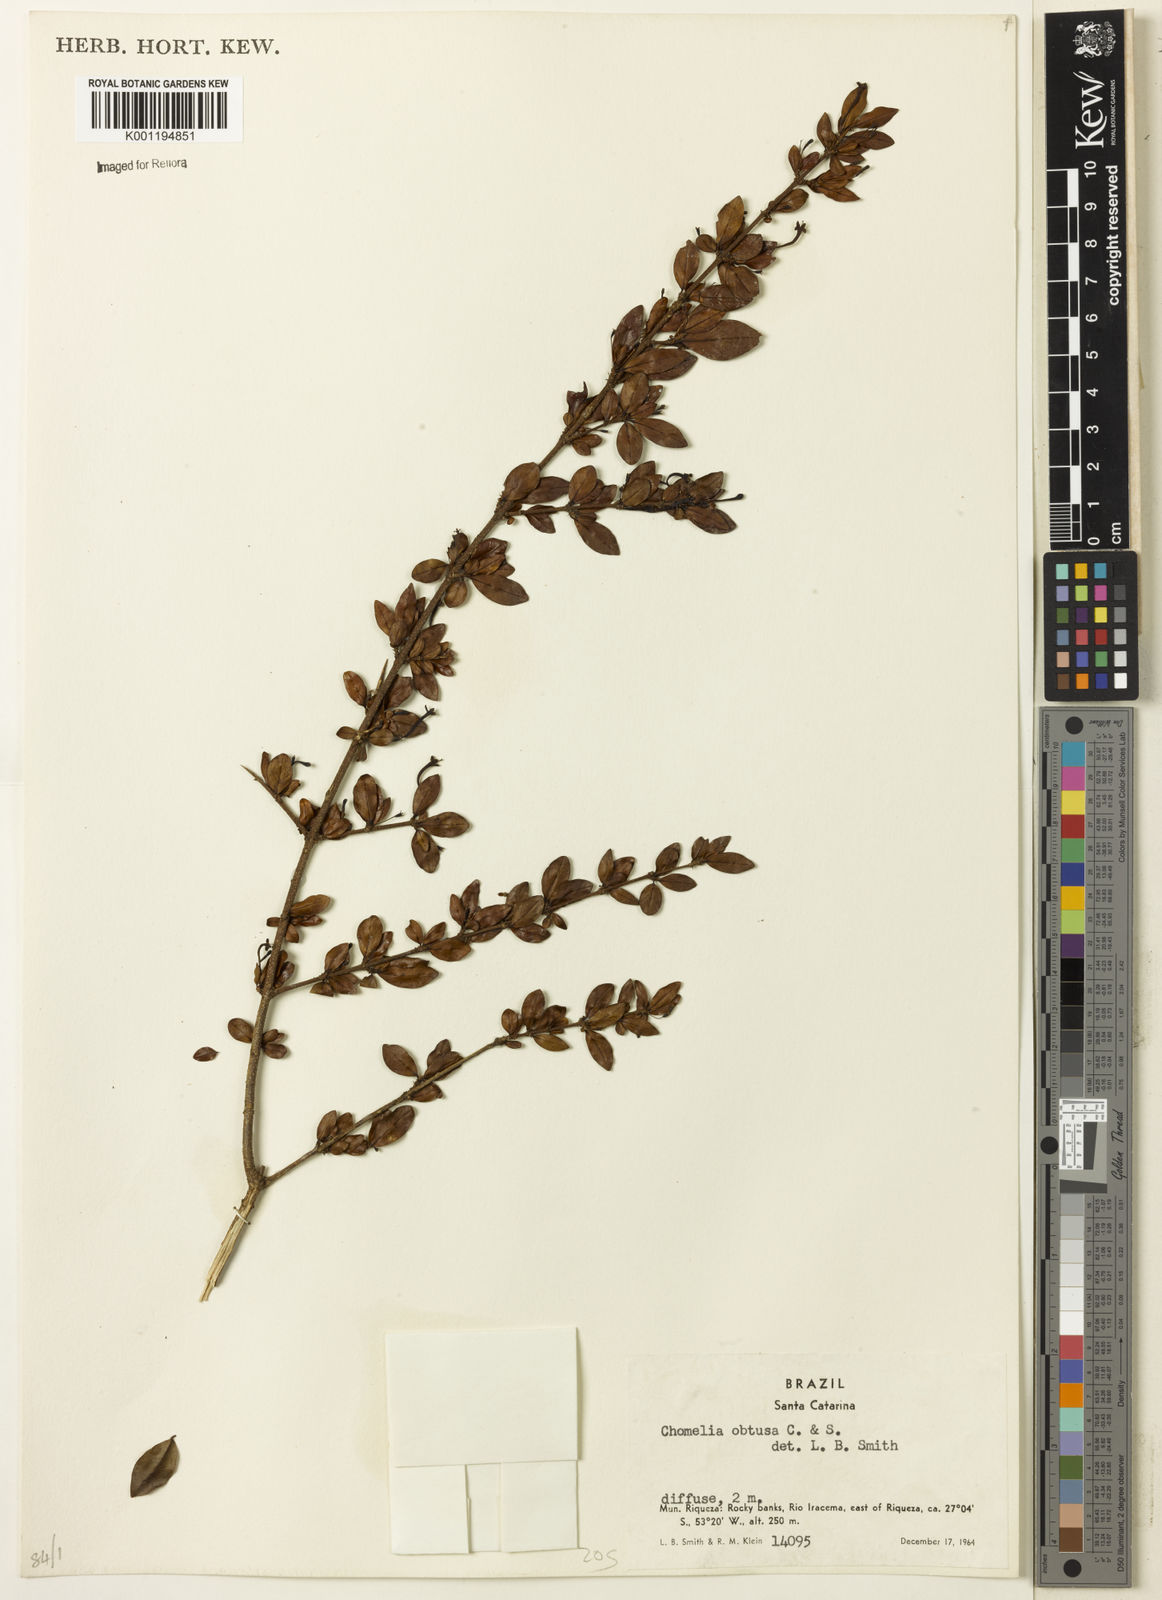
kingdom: Plantae
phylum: Tracheophyta
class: Magnoliopsida
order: Gentianales
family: Rubiaceae
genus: Chomelia
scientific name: Chomelia obtusa
